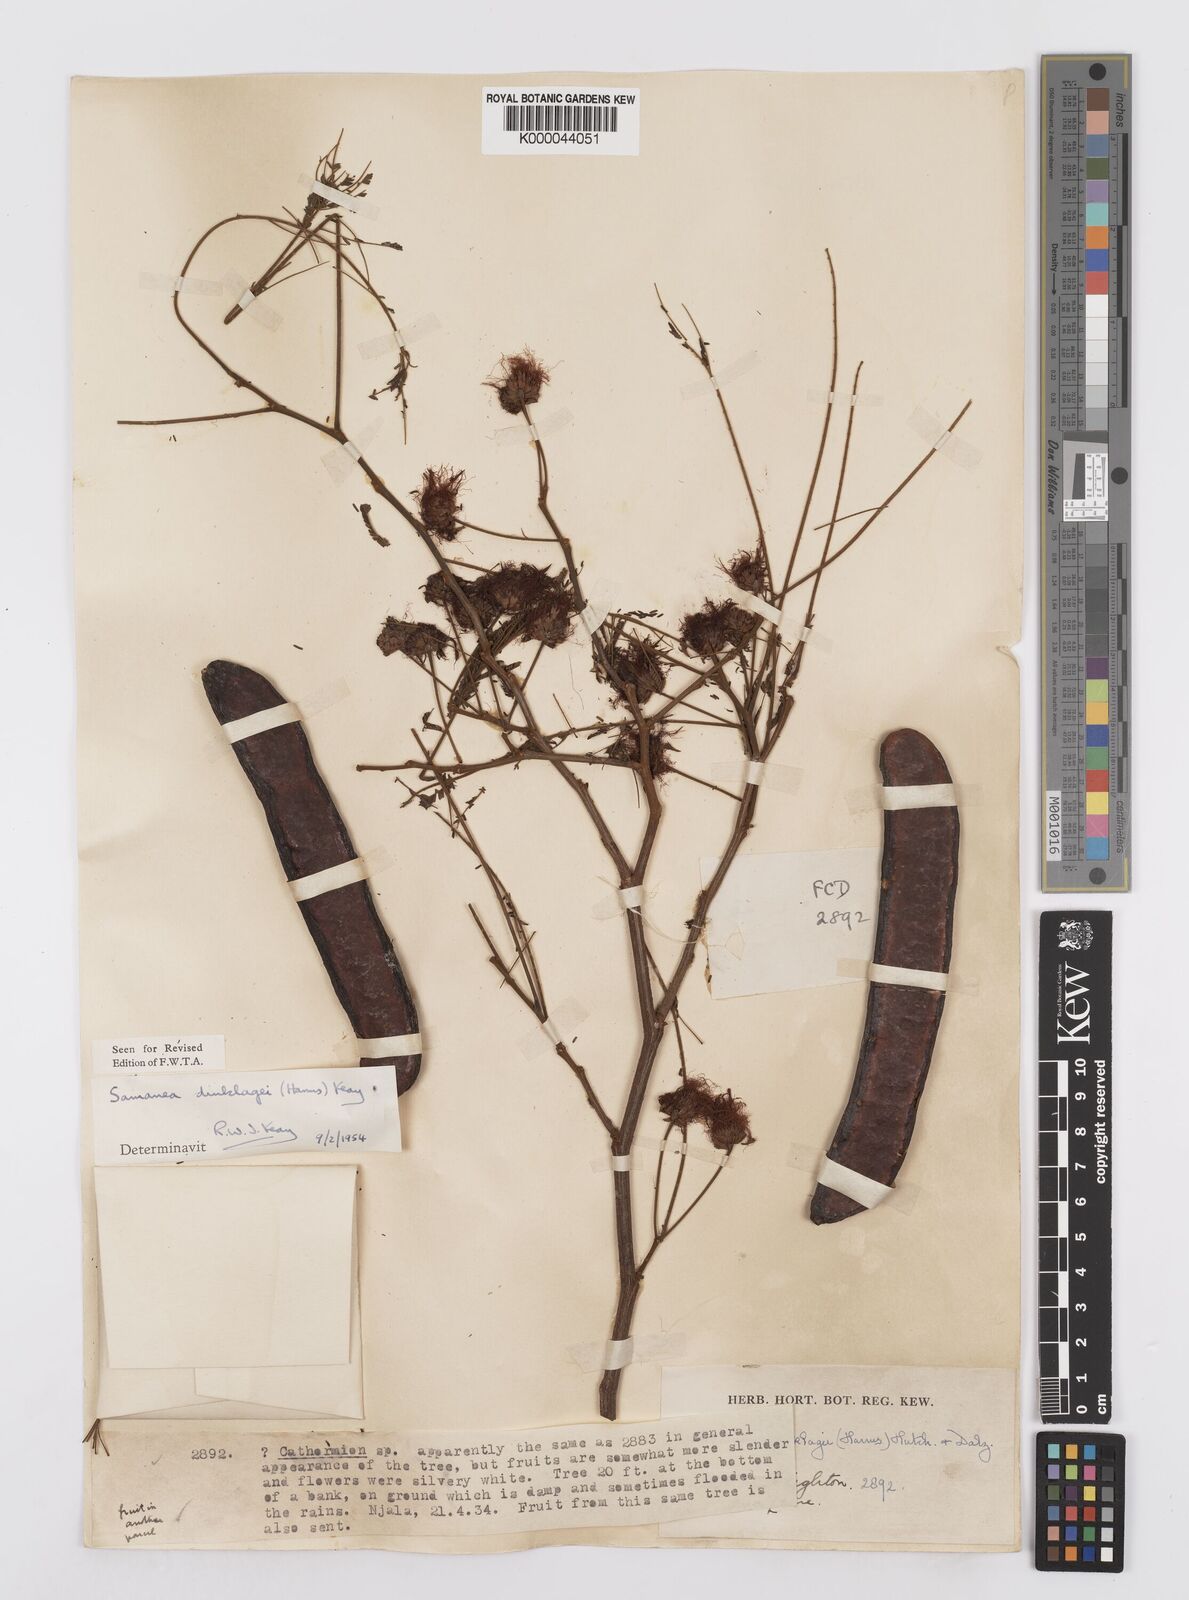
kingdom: Plantae
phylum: Tracheophyta
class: Magnoliopsida
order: Fabales
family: Fabaceae
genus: Albizia
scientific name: Albizia dinklagei
